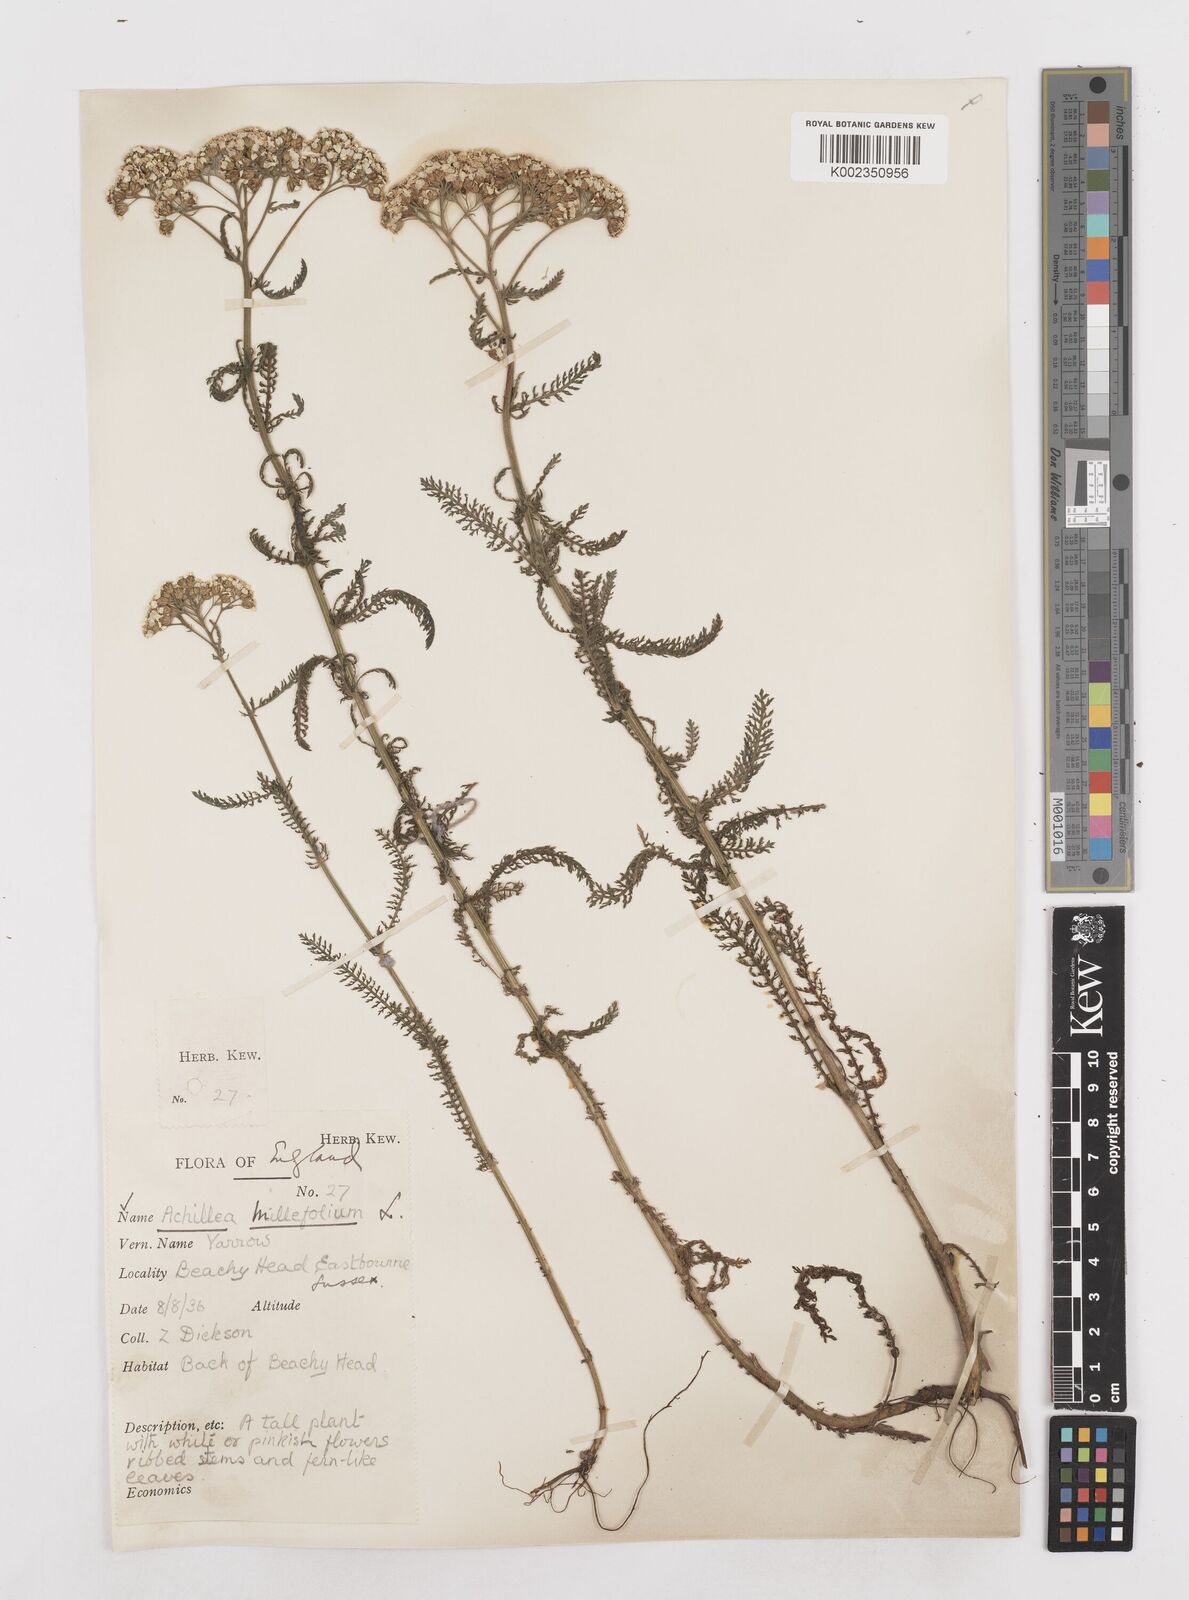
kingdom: Plantae
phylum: Tracheophyta
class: Magnoliopsida
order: Asterales
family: Asteraceae
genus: Achillea
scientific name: Achillea millefolium
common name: Yarrow
